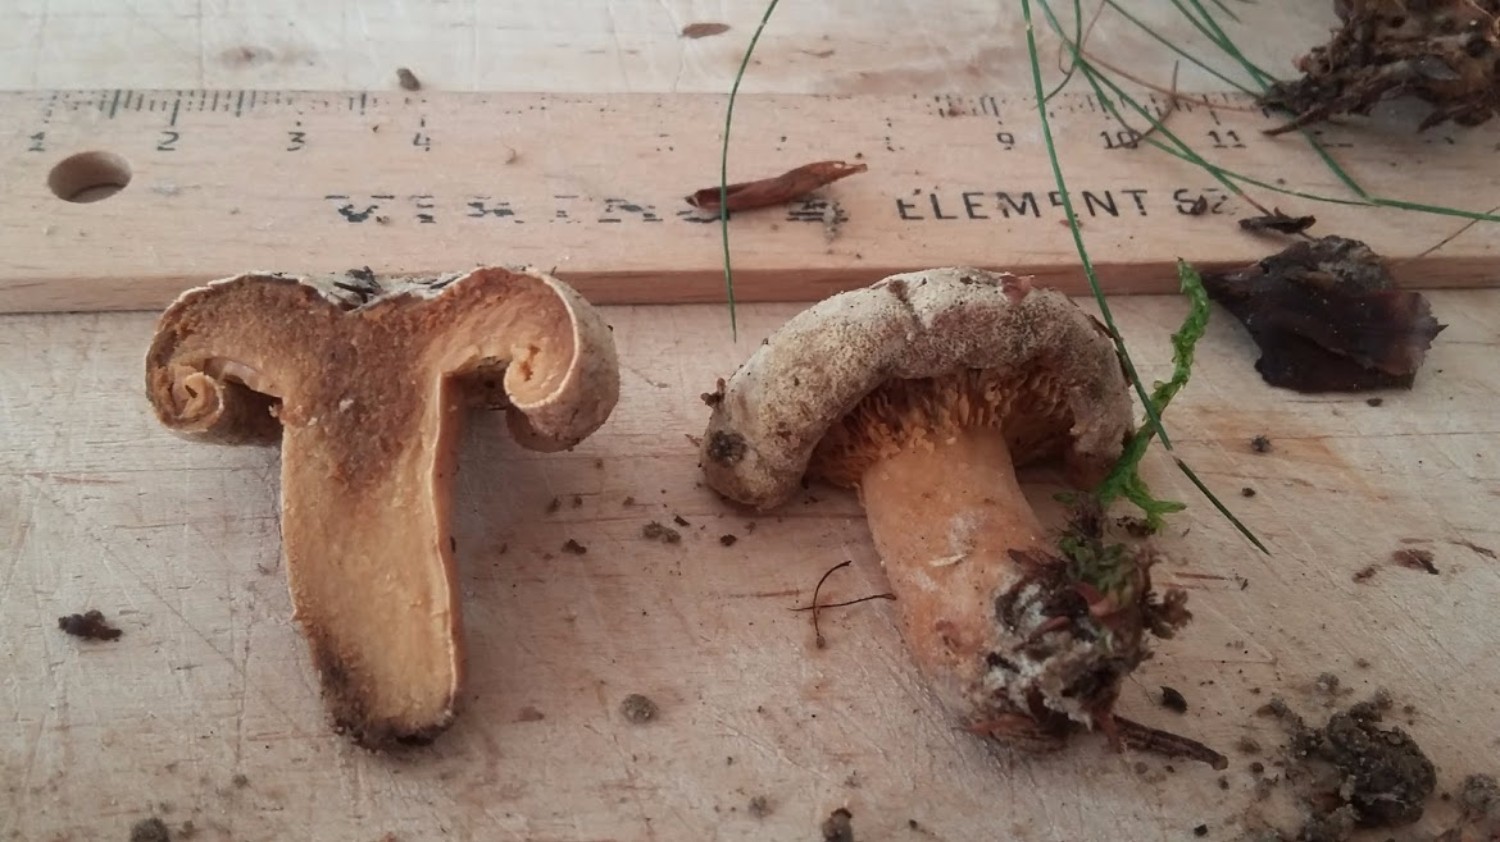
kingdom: Fungi
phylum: Basidiomycota
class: Agaricomycetes
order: Boletales
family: Paxillaceae
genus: Paxillus
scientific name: Paxillus involutus
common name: almindelig netbladhat
